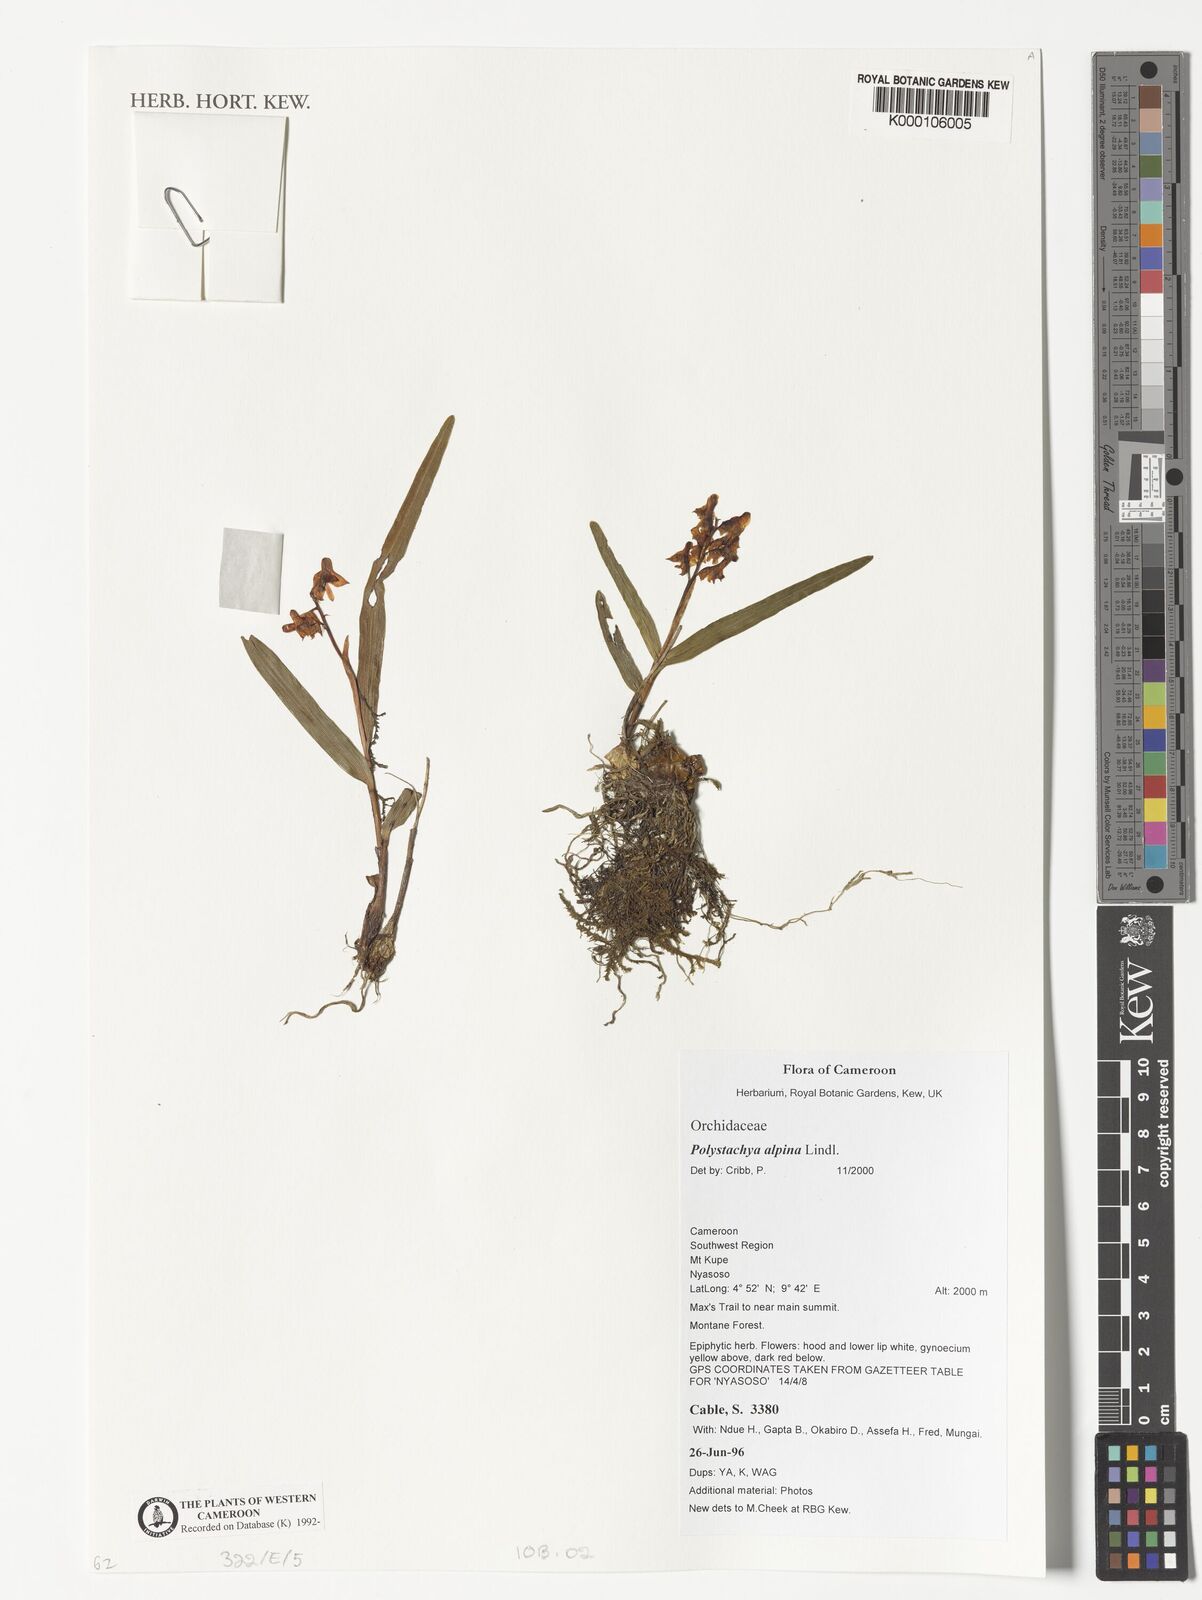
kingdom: Plantae
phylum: Tracheophyta
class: Liliopsida
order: Asparagales
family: Orchidaceae
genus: Polystachya
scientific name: Polystachya alpina
